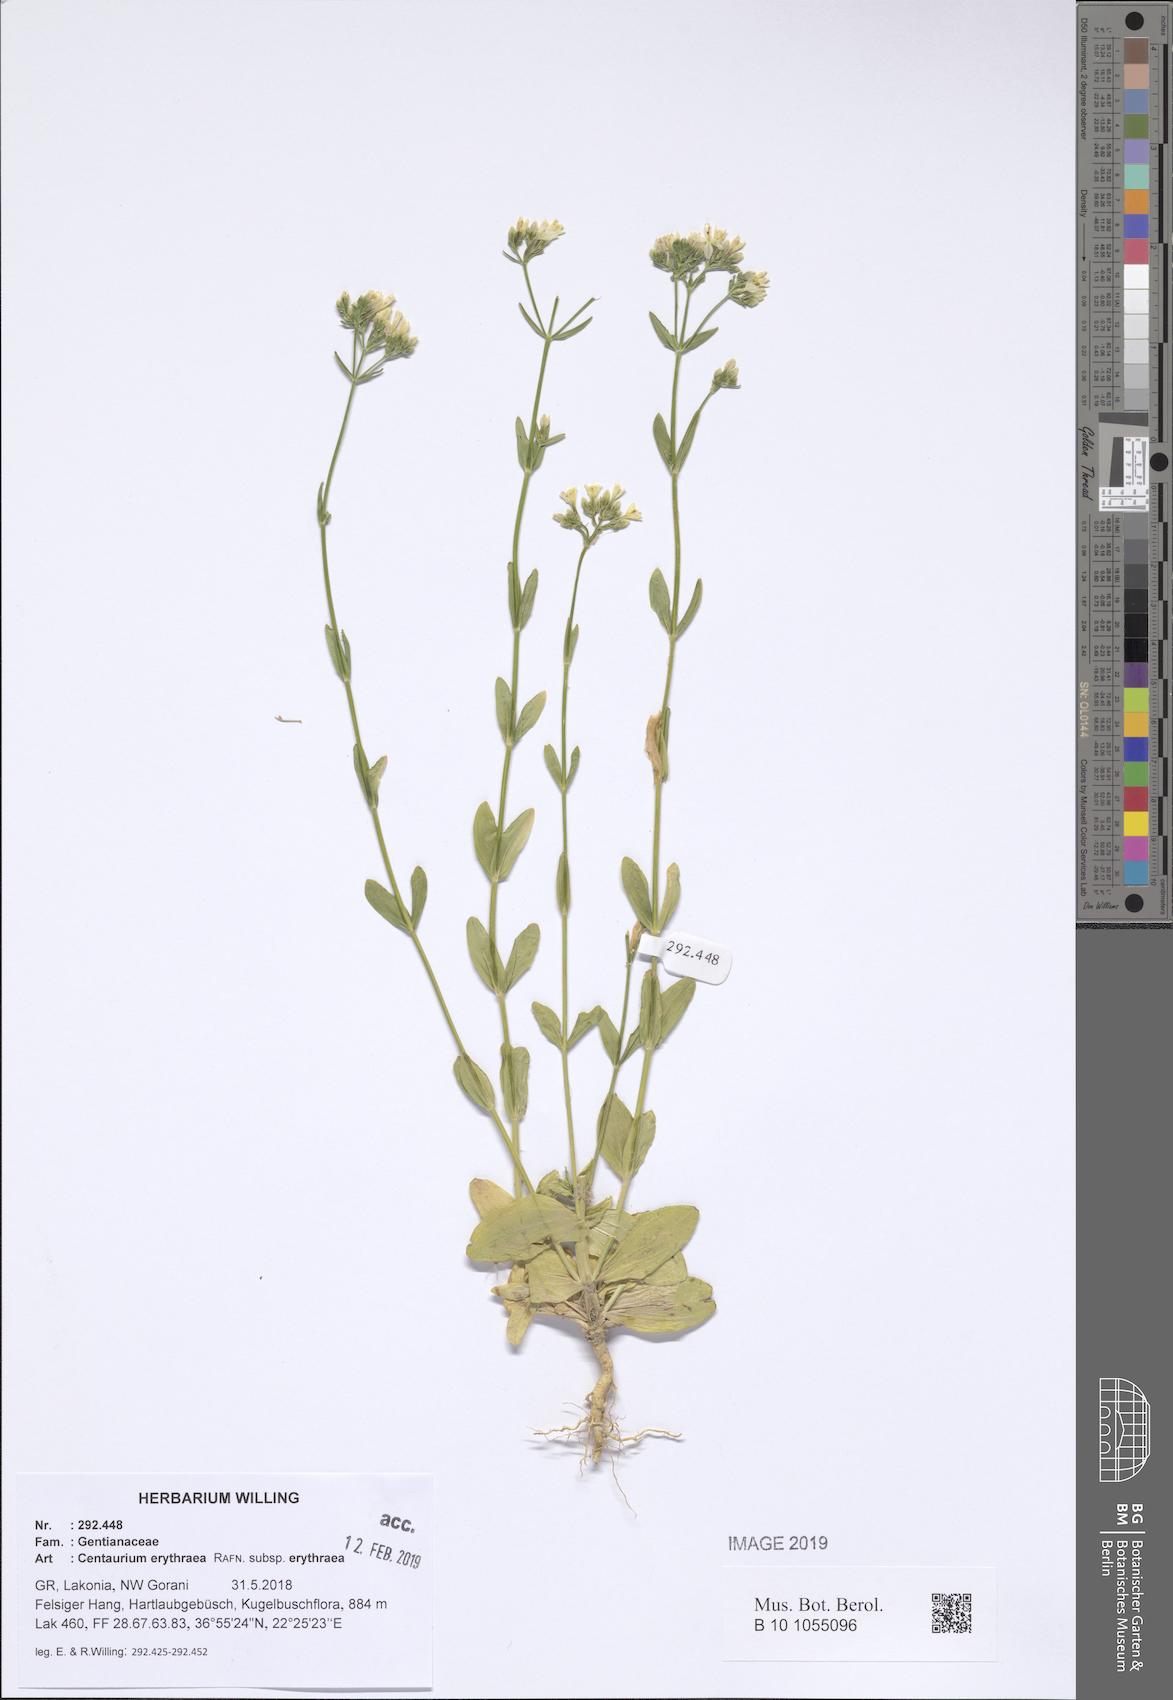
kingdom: Plantae
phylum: Tracheophyta
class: Magnoliopsida
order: Gentianales
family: Gentianaceae
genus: Centaurium
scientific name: Centaurium erythraea
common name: Common centaury
